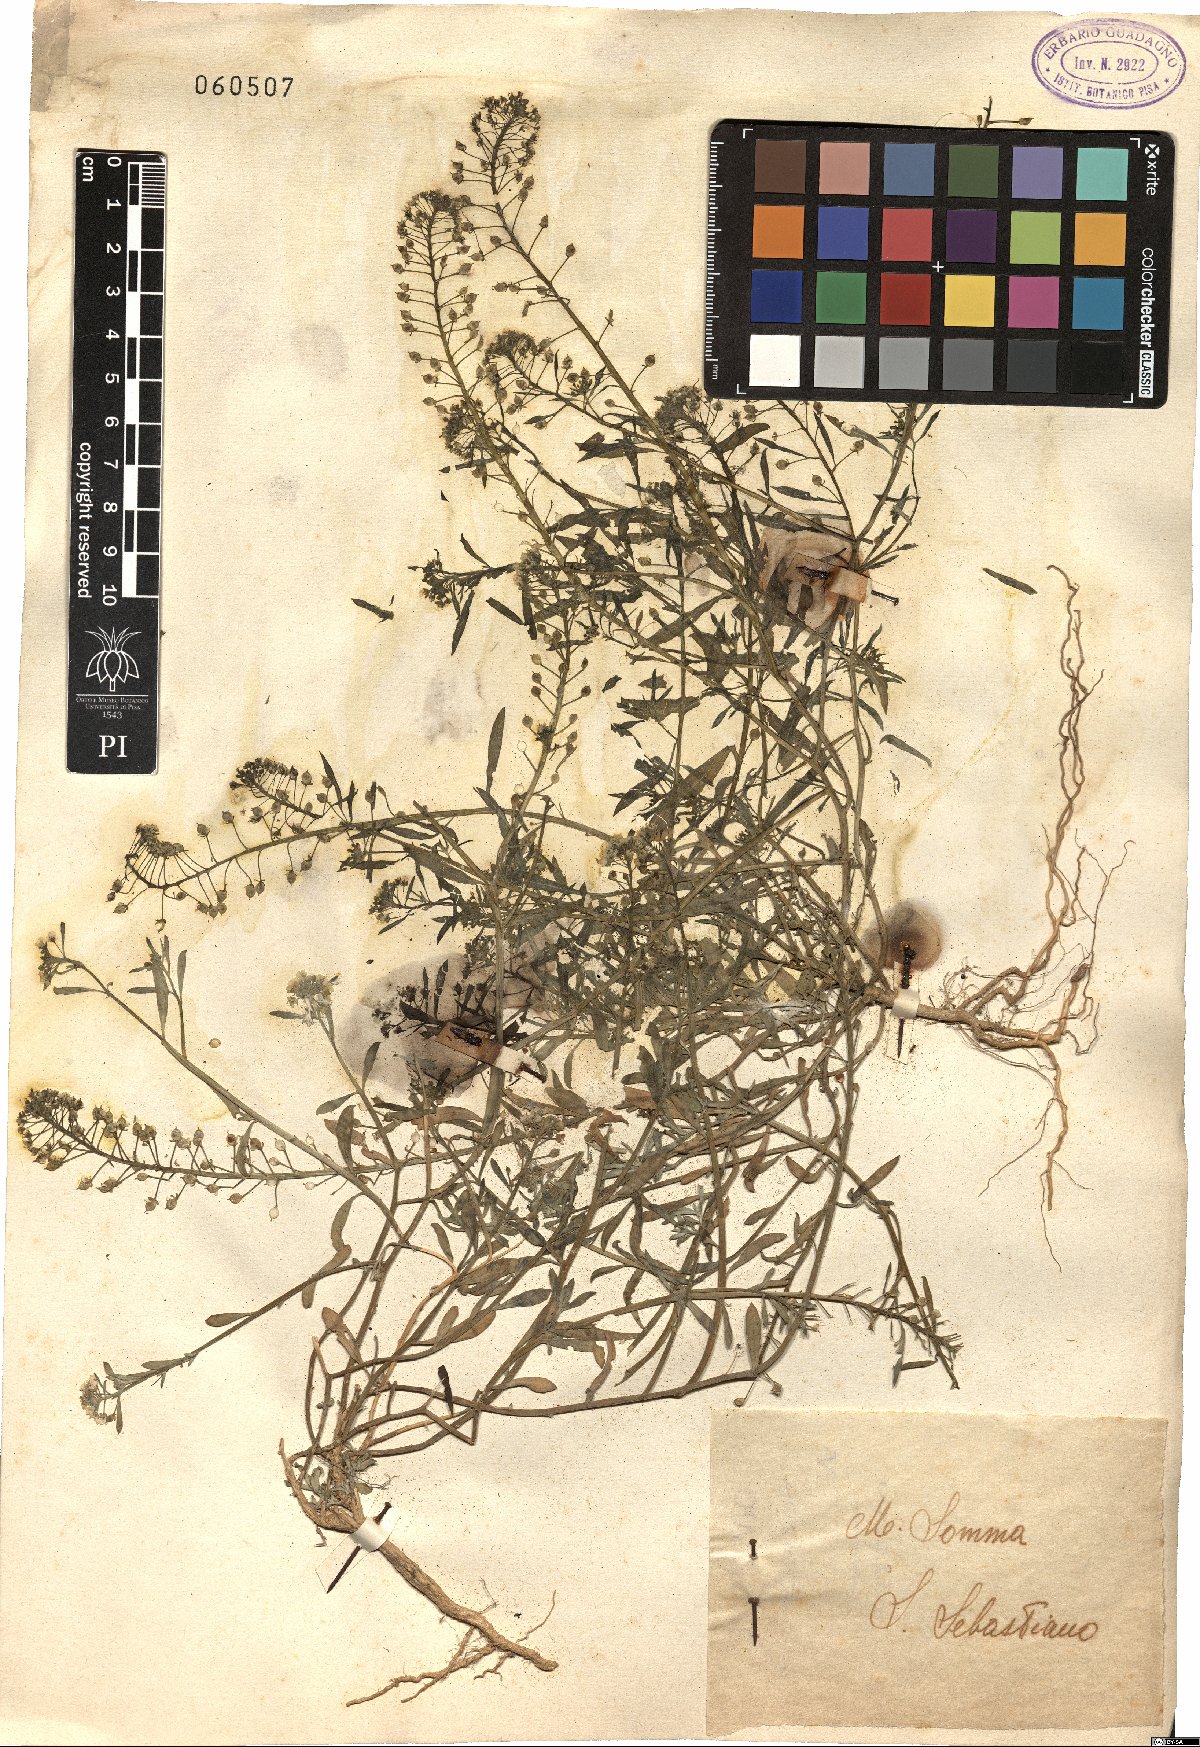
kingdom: Plantae
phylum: Tracheophyta
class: Magnoliopsida
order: Brassicales
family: Brassicaceae
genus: Lepidium
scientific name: Lepidium
